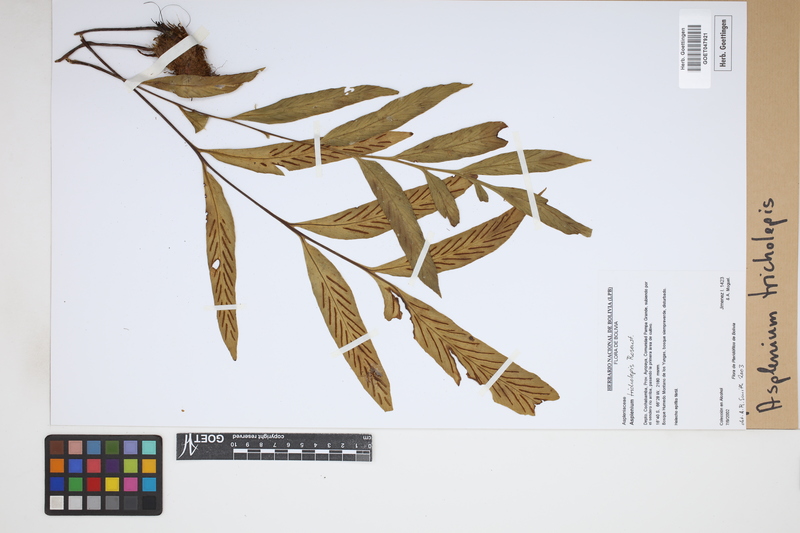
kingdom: Plantae
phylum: Tracheophyta
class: Polypodiopsida
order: Polypodiales
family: Aspleniaceae
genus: Asplenium
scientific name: Asplenium tricholepis
